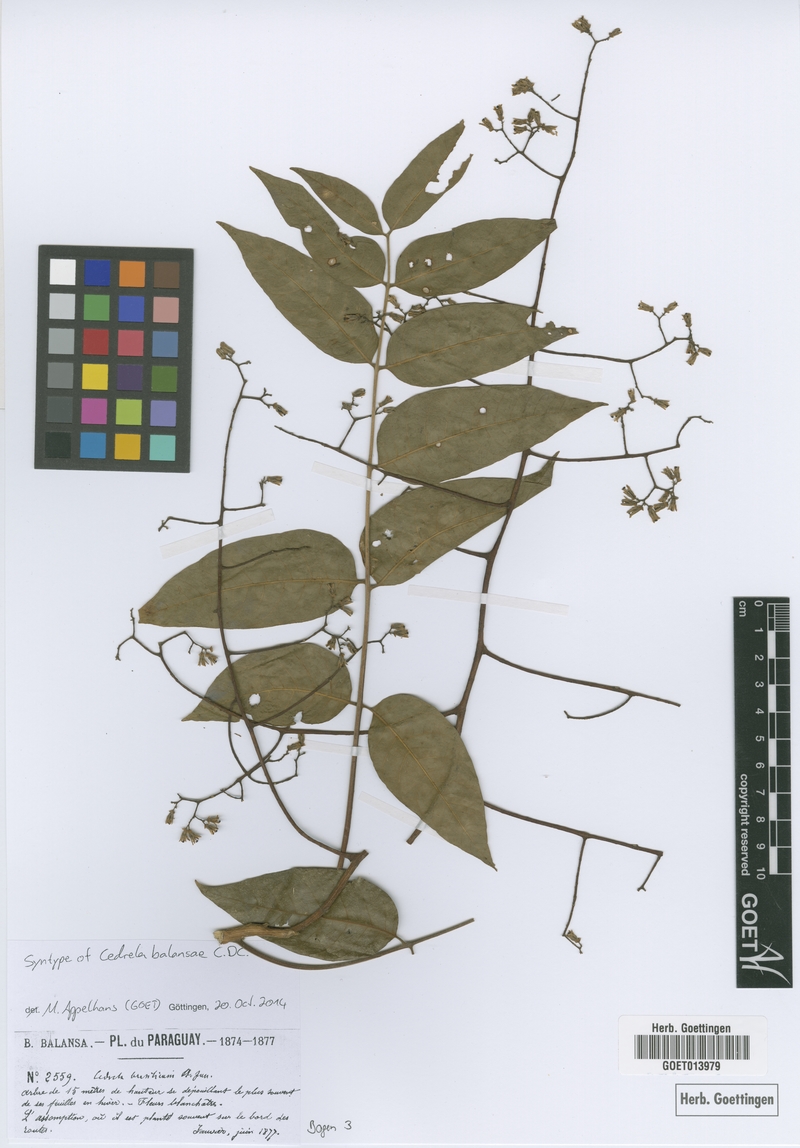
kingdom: Plantae
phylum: Tracheophyta
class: Magnoliopsida
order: Sapindales
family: Meliaceae
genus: Cedrela
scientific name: Cedrela balansae
